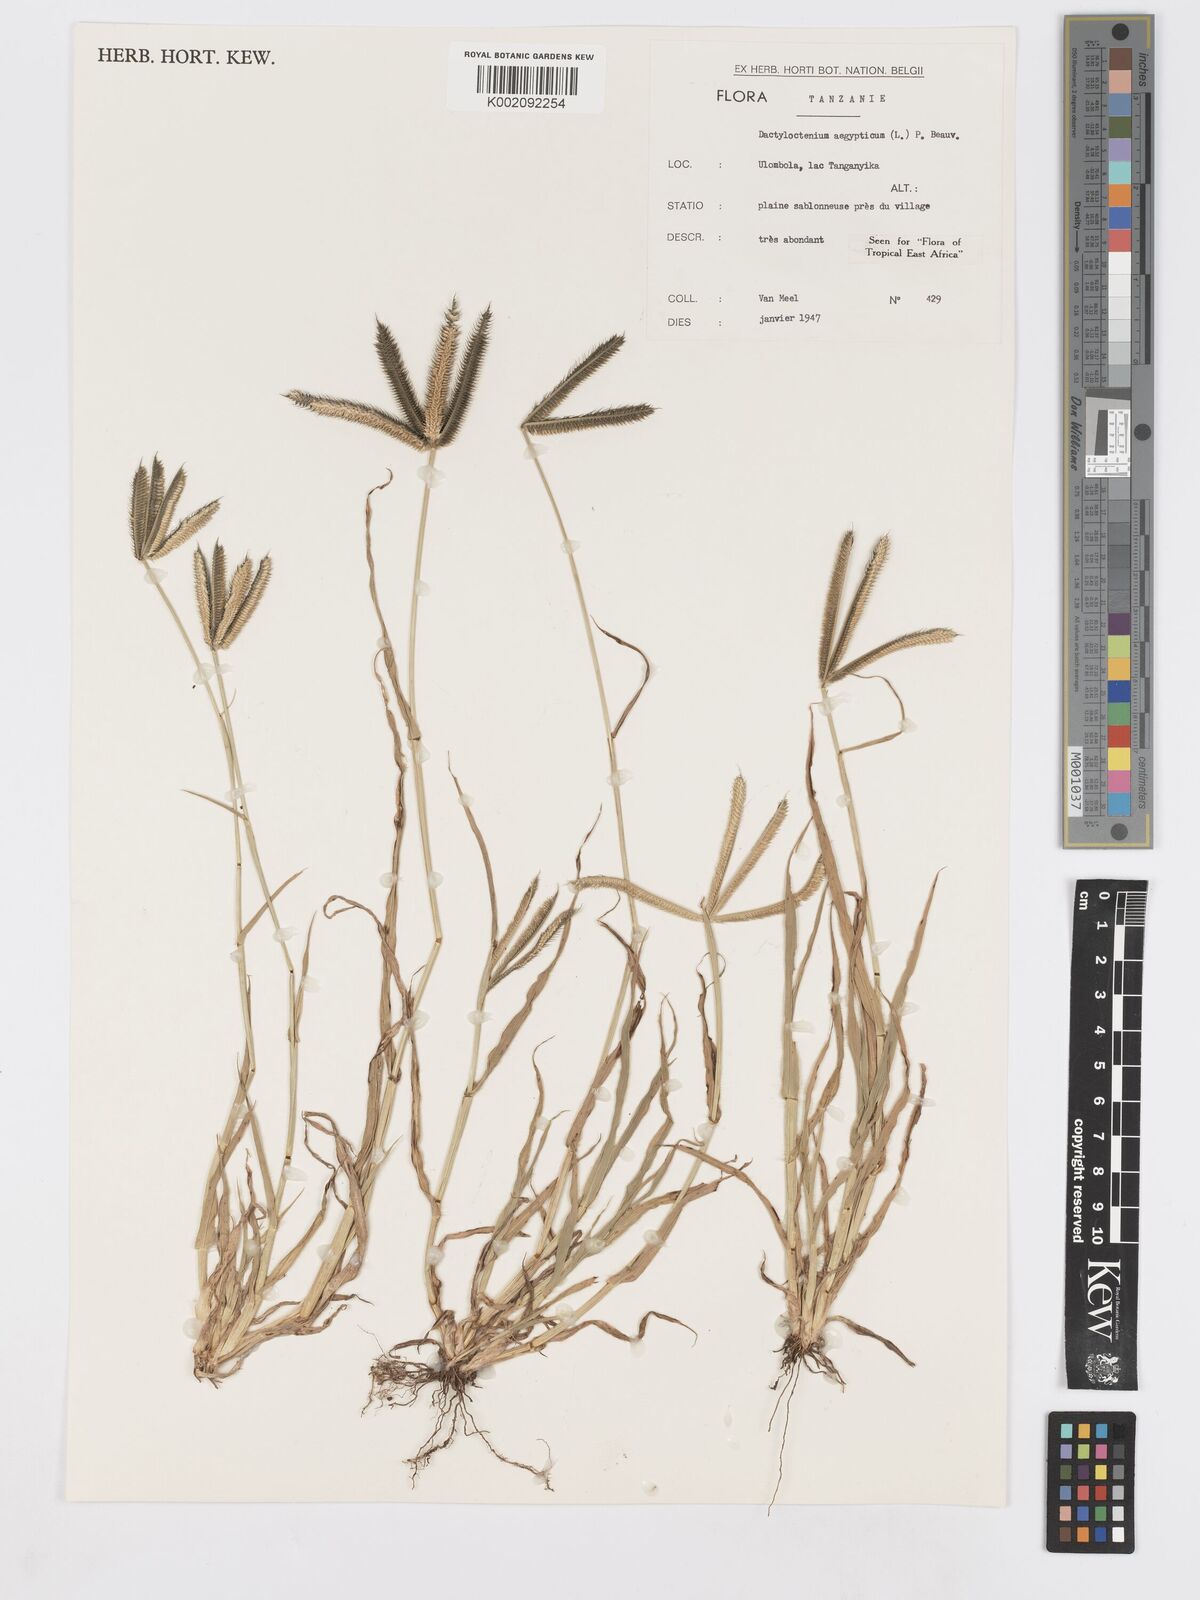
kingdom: Plantae
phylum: Tracheophyta
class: Liliopsida
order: Poales
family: Poaceae
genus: Dactyloctenium
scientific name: Dactyloctenium aegyptium
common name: Egyptian grass
